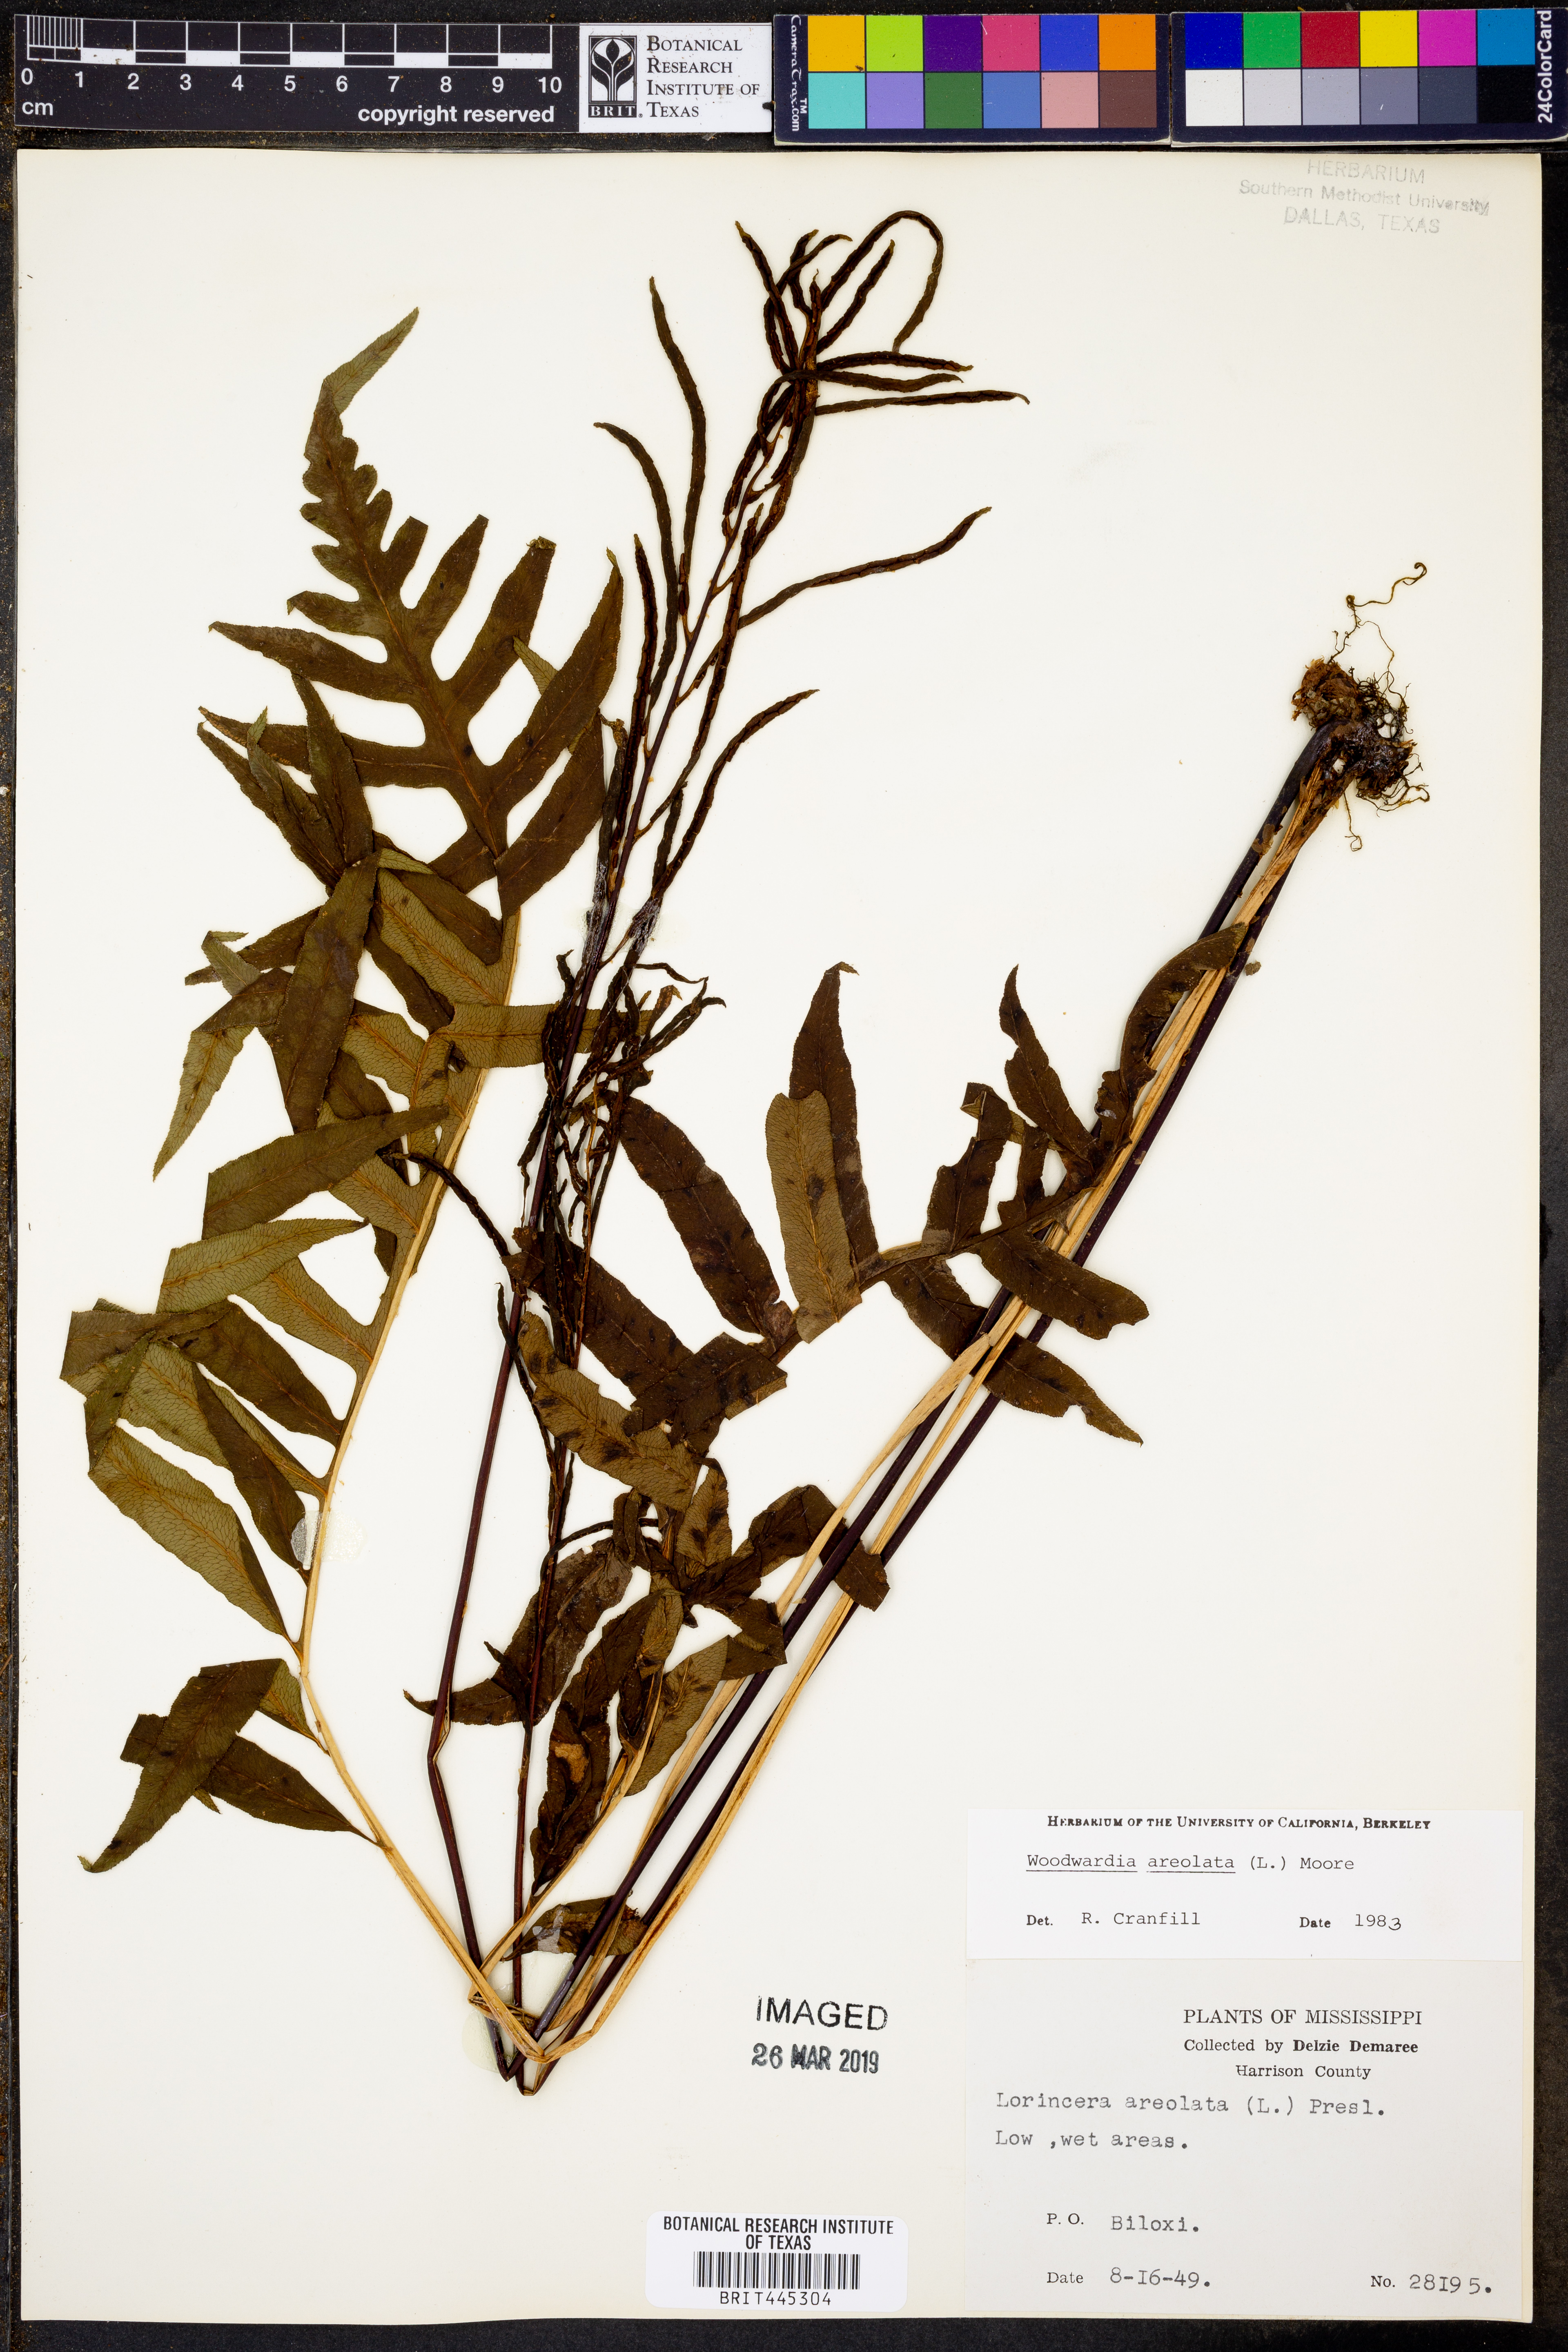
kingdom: Plantae
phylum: Tracheophyta
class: Polypodiopsida
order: Polypodiales
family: Blechnaceae
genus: Lorinseria
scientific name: Lorinseria areolata
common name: Dwarf chain fern
